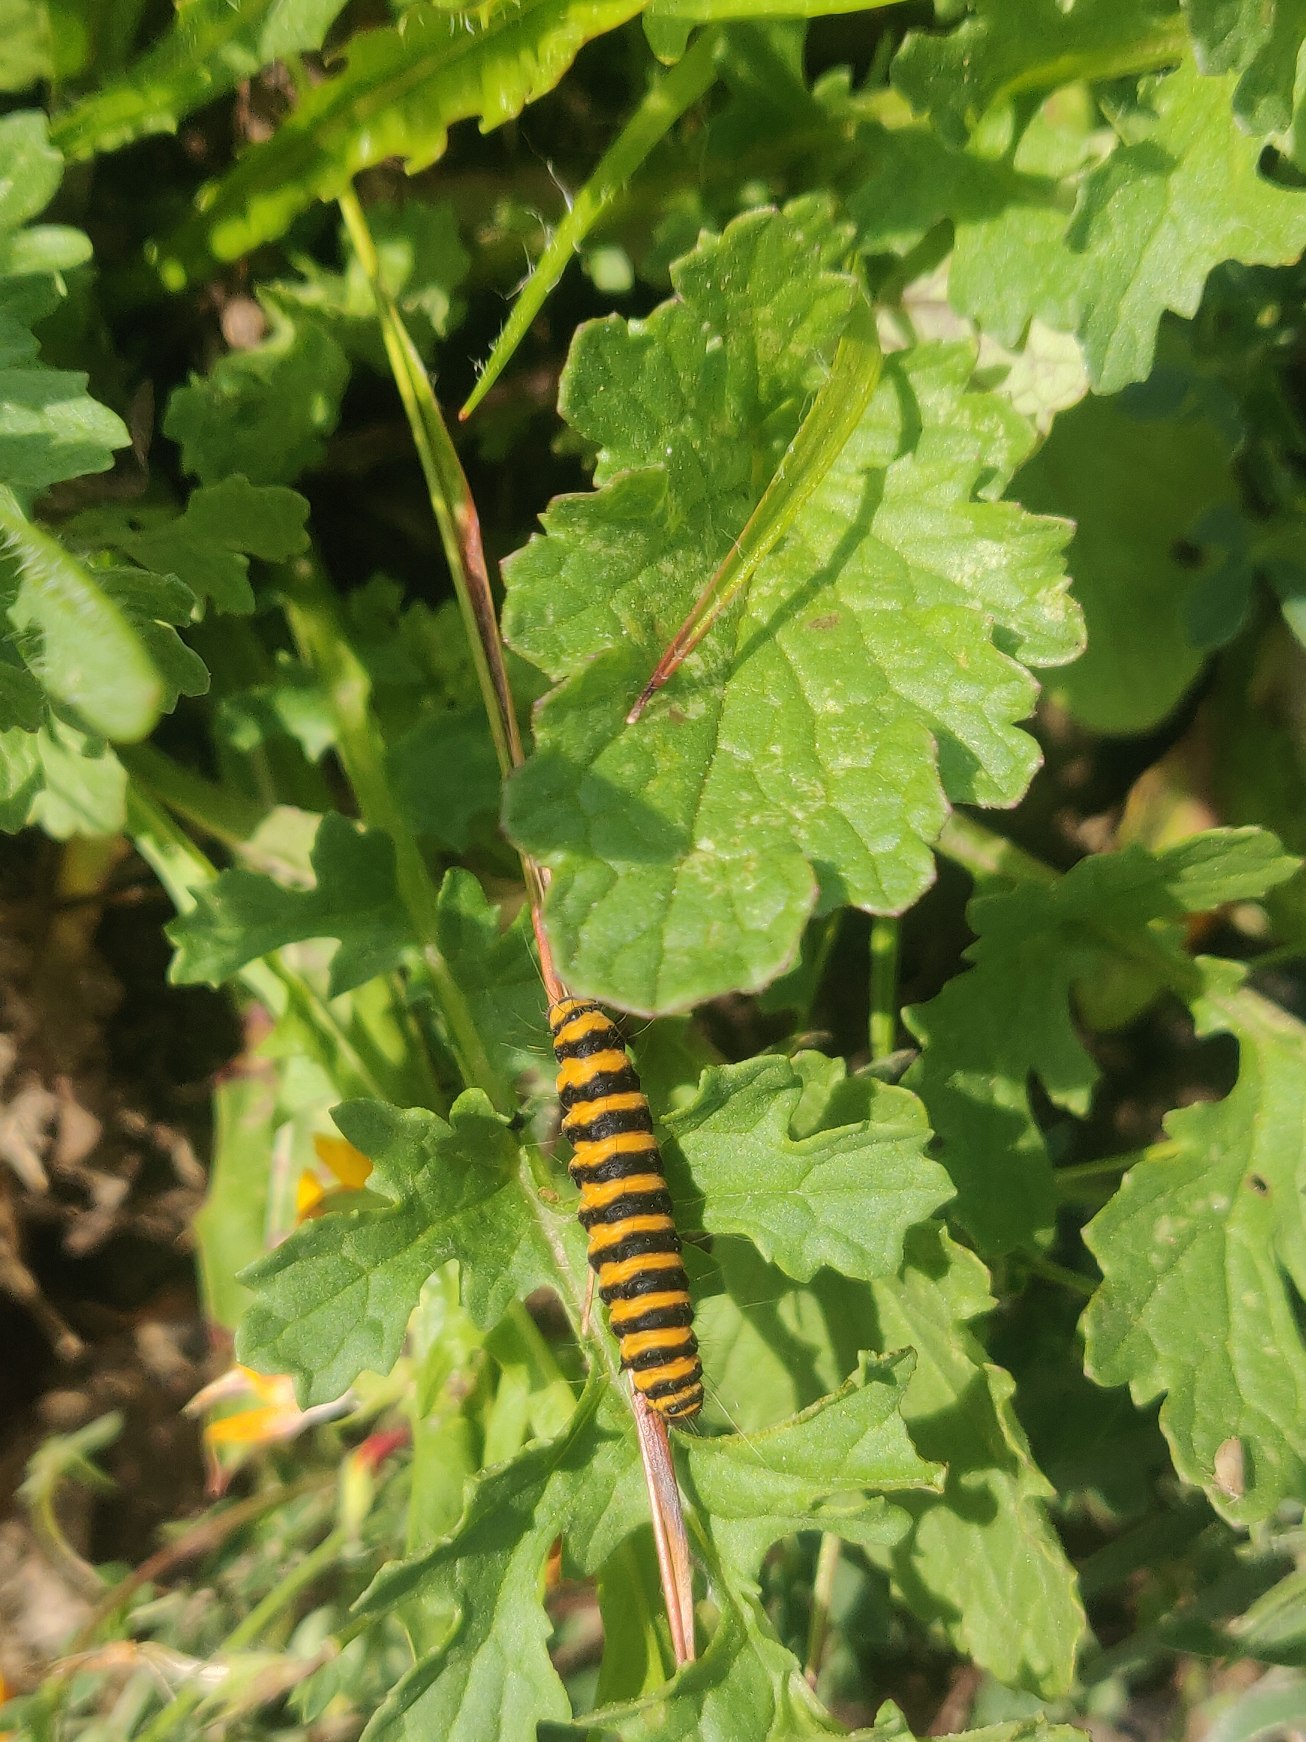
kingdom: Animalia
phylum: Arthropoda
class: Insecta
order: Lepidoptera
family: Erebidae
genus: Tyria
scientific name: Tyria jacobaeae
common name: Blodplet
